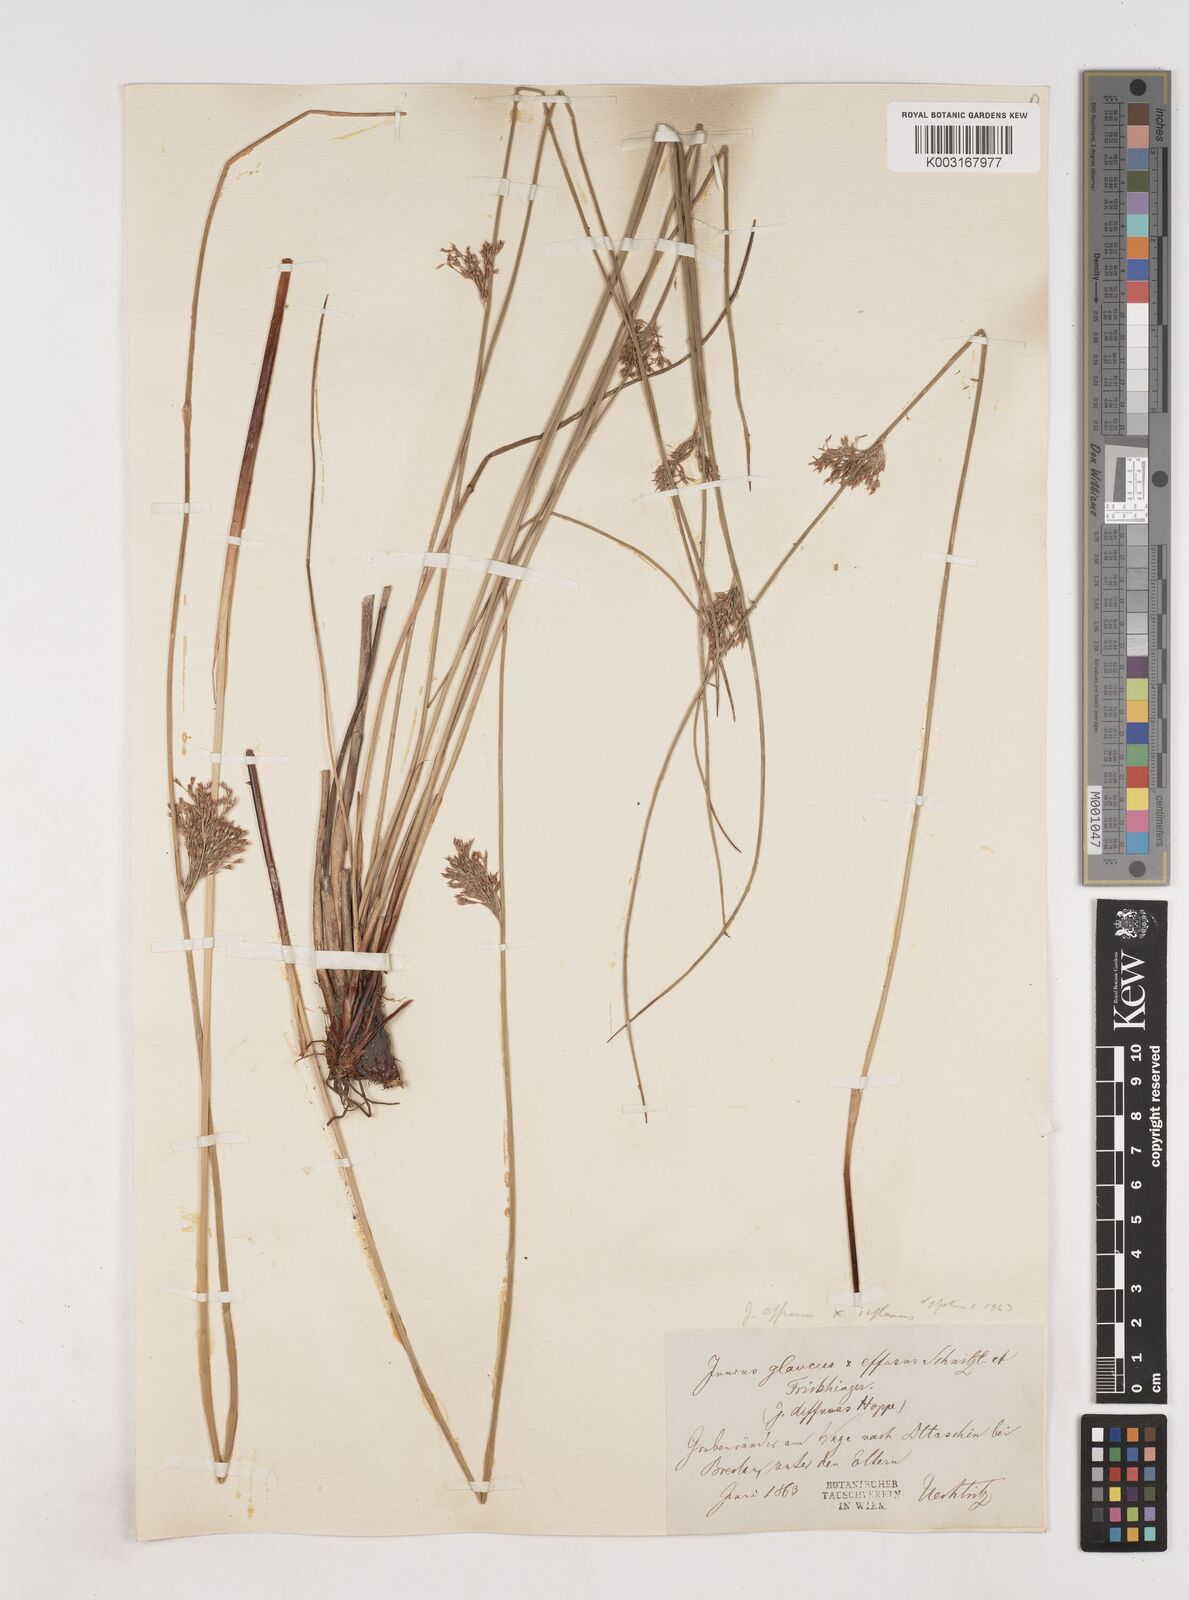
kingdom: Plantae
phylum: Tracheophyta
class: Liliopsida
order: Poales
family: Juncaceae
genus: Juncus
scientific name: Juncus effusus
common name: Soft rush
